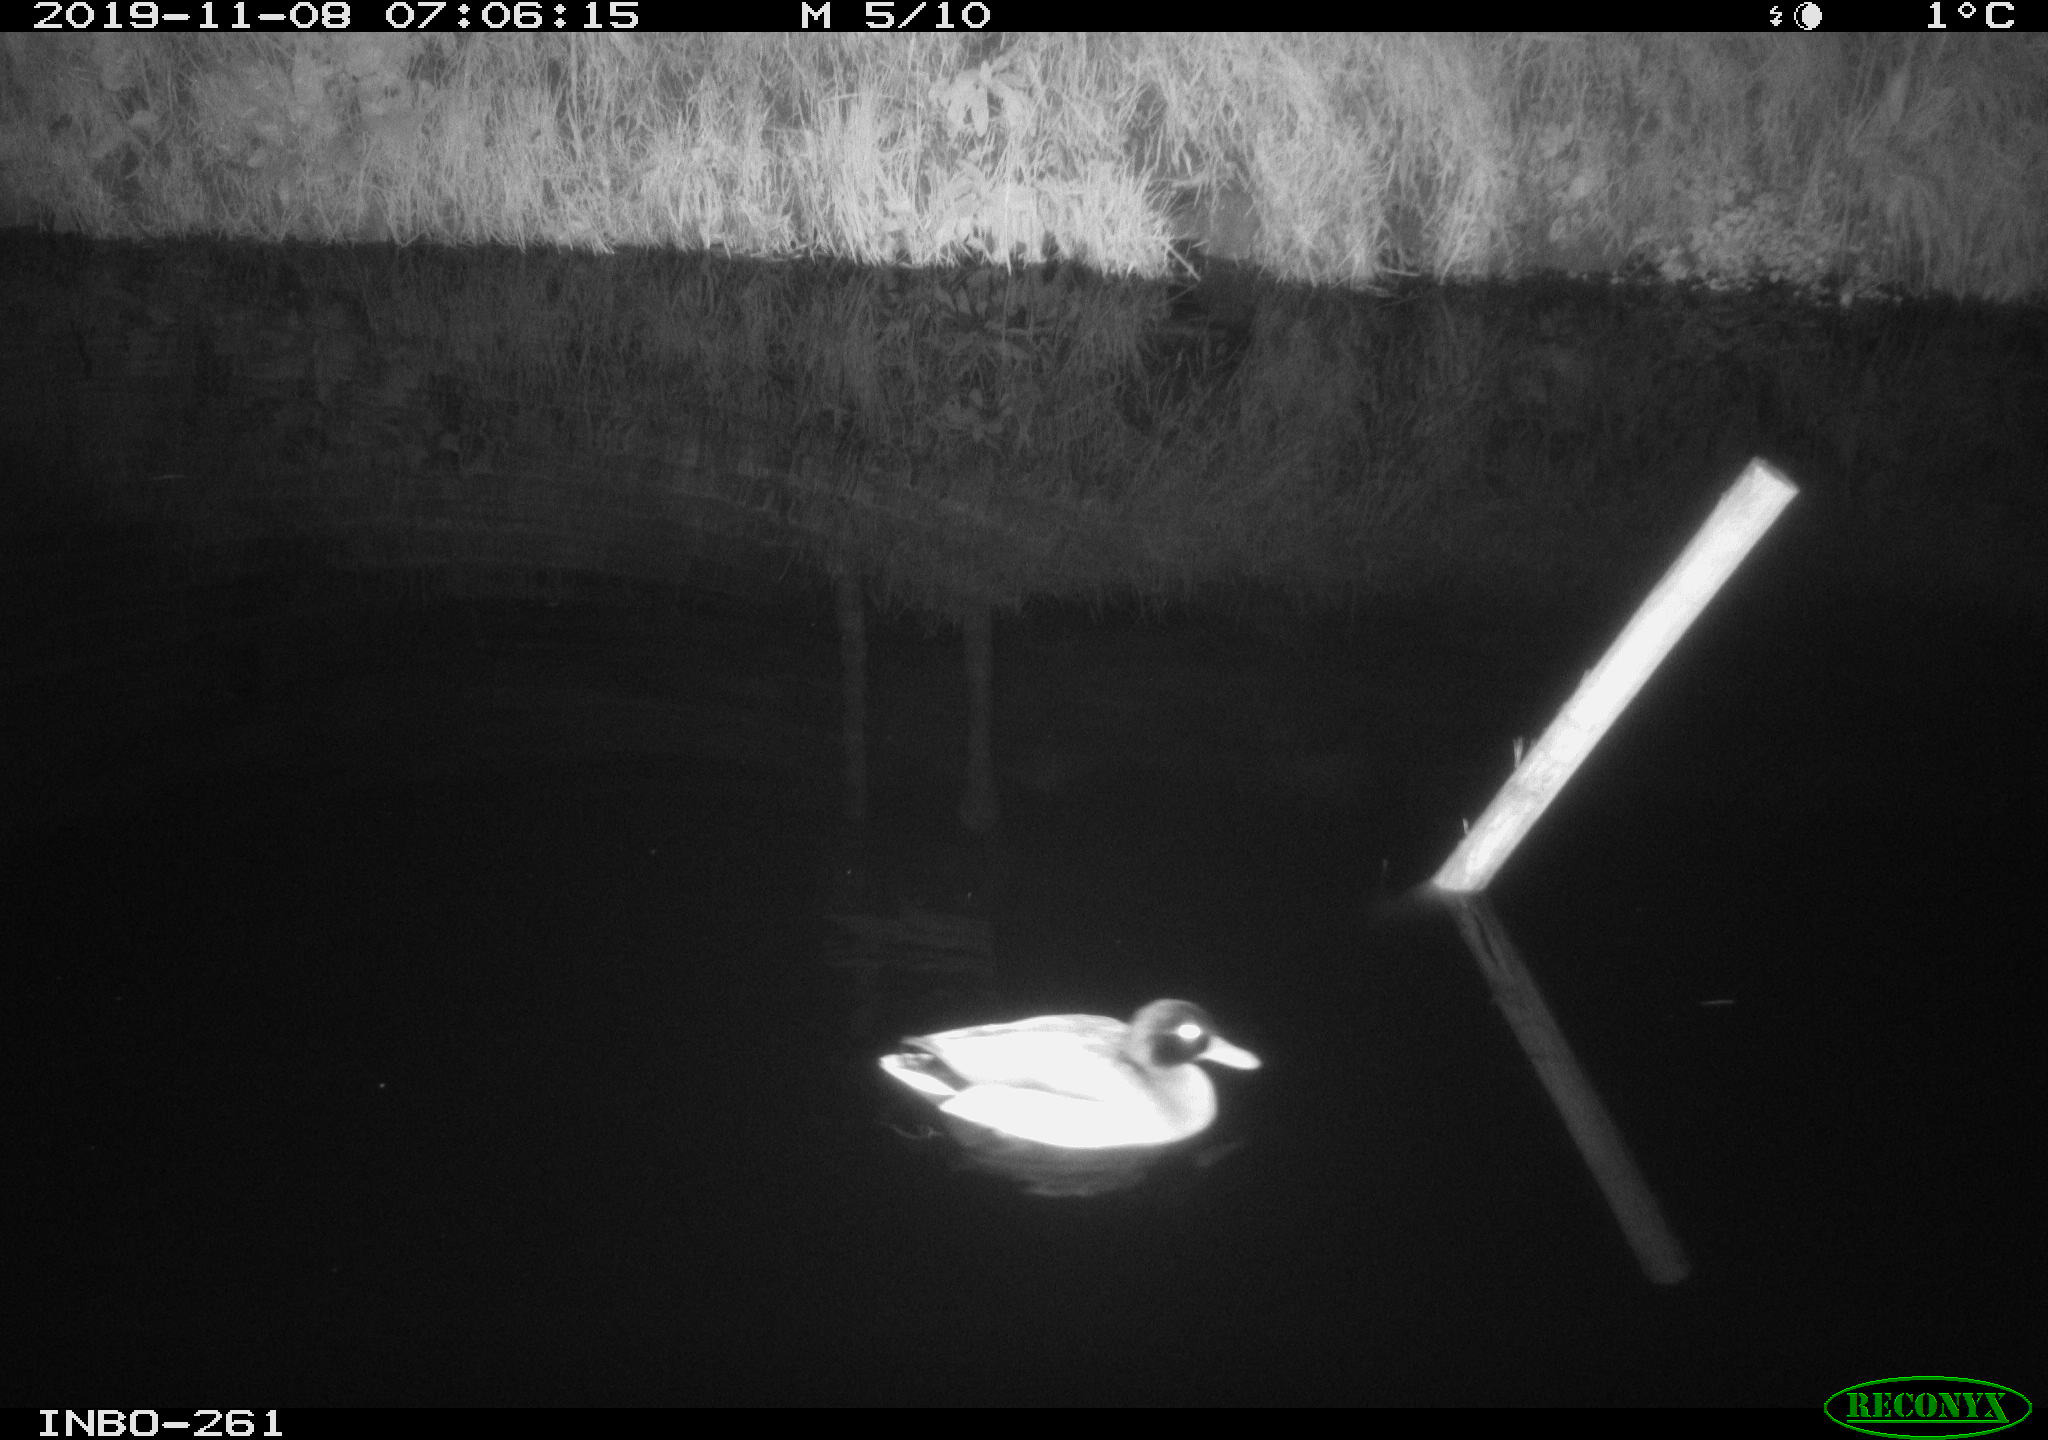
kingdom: Animalia
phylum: Chordata
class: Aves
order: Anseriformes
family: Anatidae
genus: Anas
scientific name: Anas platyrhynchos
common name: Mallard
